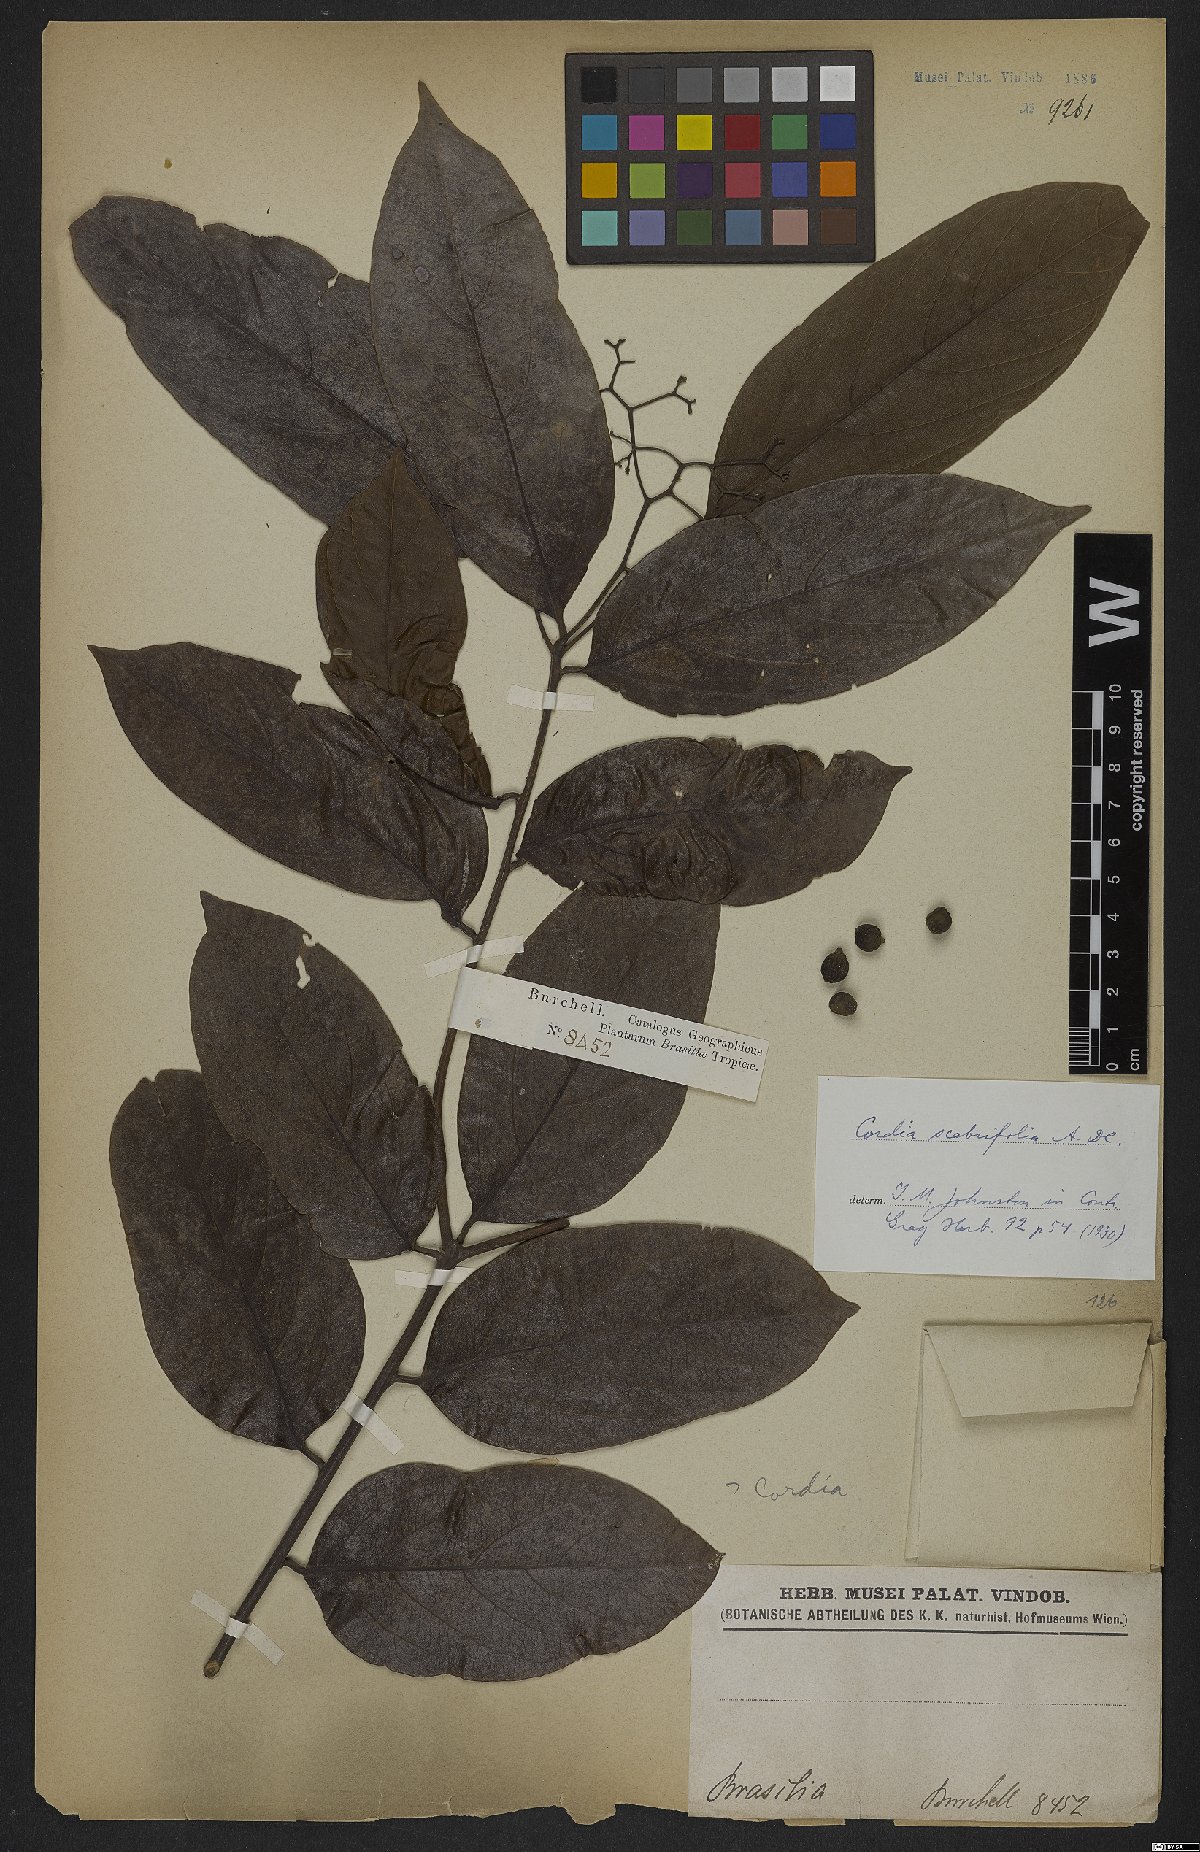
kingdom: Plantae
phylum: Tracheophyta
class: Magnoliopsida
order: Boraginales
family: Cordiaceae
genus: Cordia
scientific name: Cordia scabrifolia
